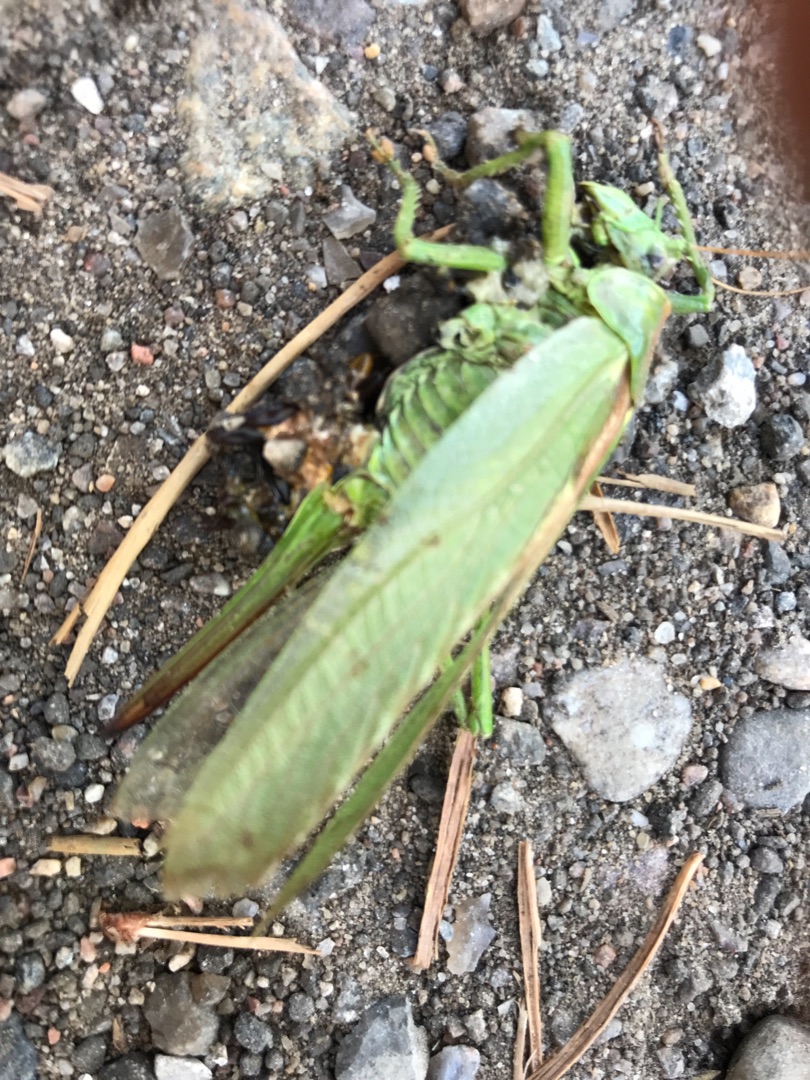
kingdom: Animalia
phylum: Arthropoda
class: Insecta
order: Orthoptera
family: Tettigoniidae
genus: Tettigonia
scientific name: Tettigonia viridissima
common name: Stor grøn løvgræshoppe
